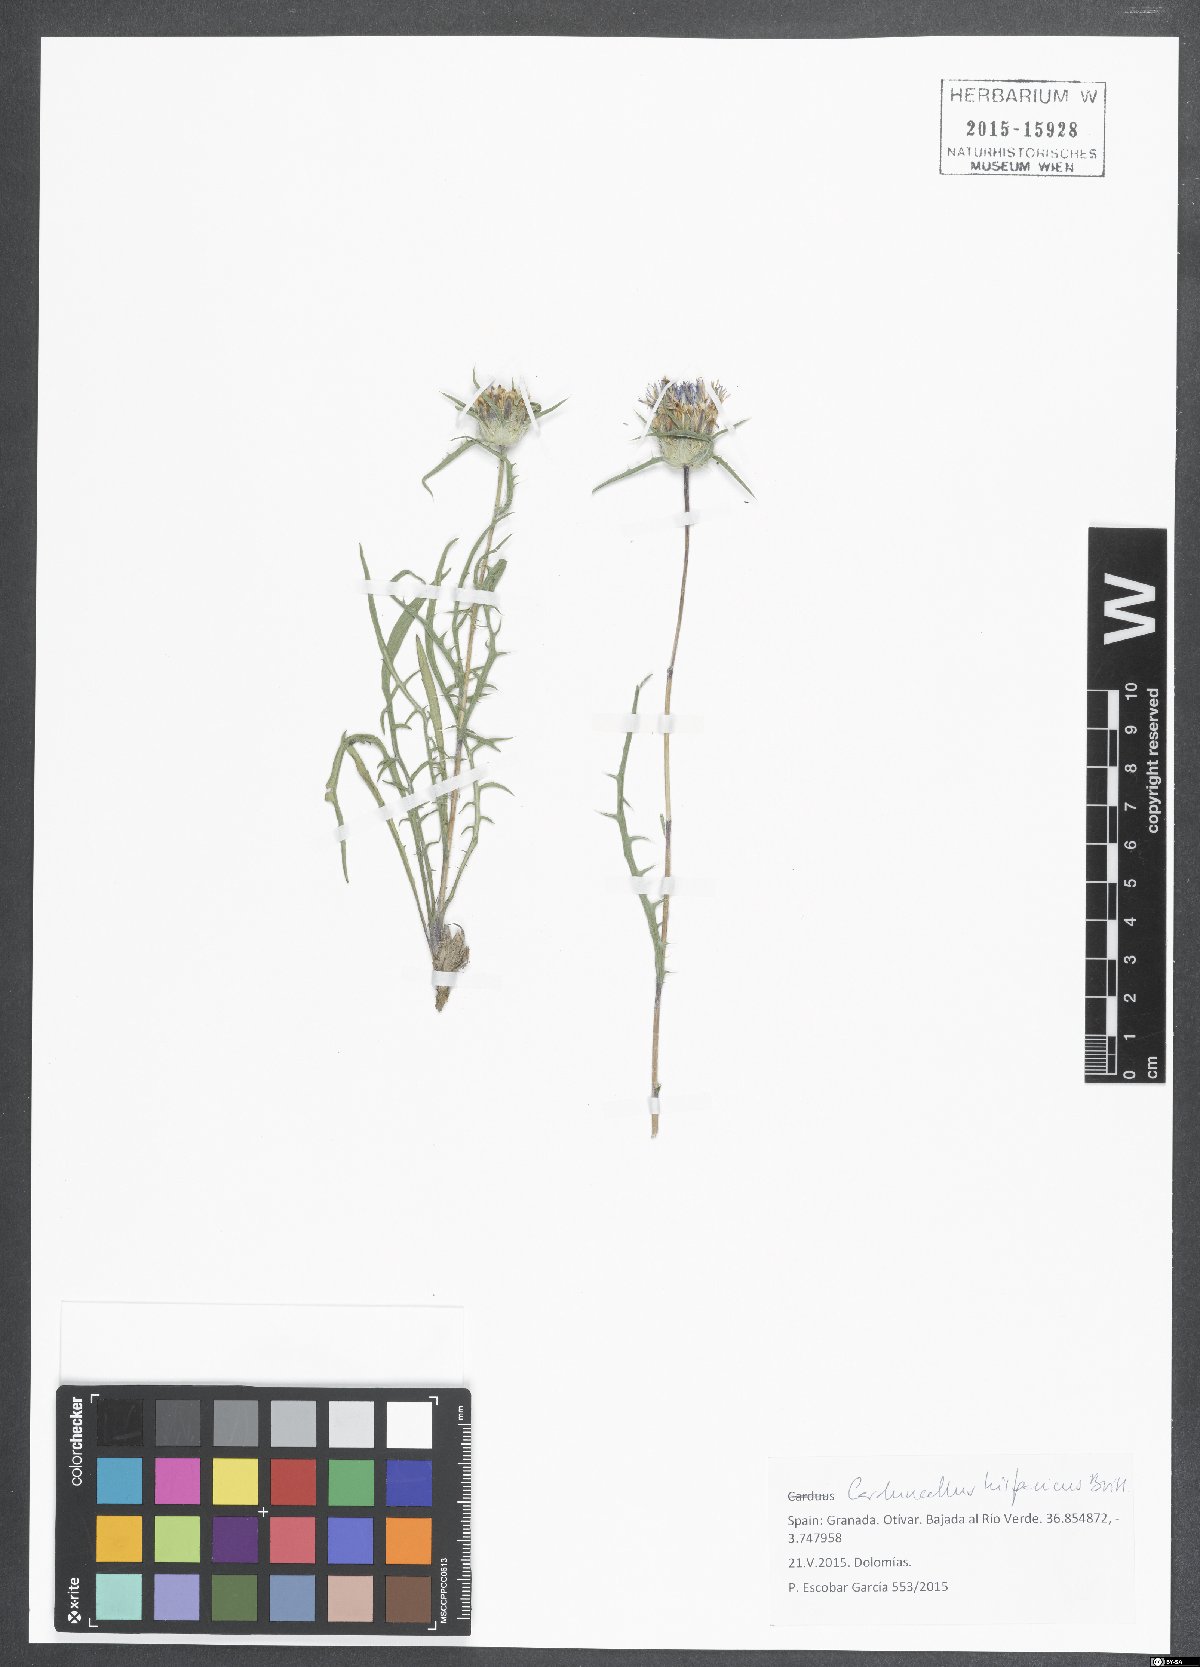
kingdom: Plantae
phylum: Tracheophyta
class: Magnoliopsida
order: Asterales
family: Asteraceae
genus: Carduncellus
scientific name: Carduncellus hispanicus
